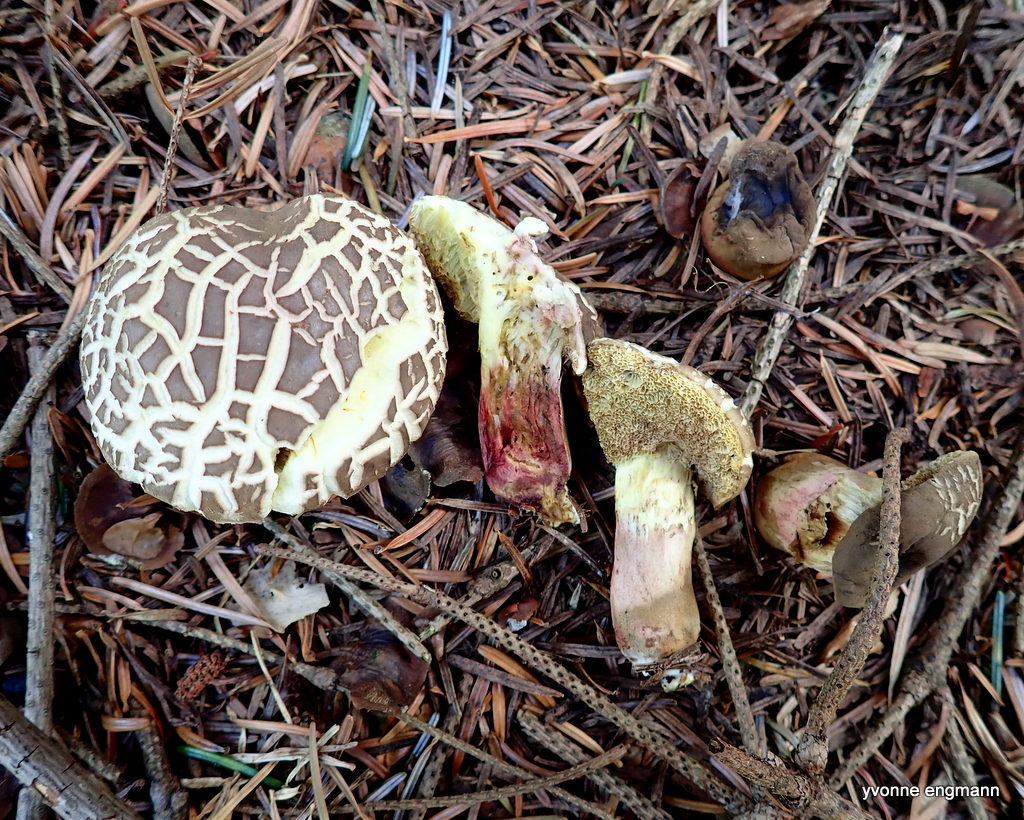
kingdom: Fungi
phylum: Basidiomycota
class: Agaricomycetes
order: Boletales
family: Boletaceae
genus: Xerocomellus
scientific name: Xerocomellus chrysenteron
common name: rødsprukken rørhat
